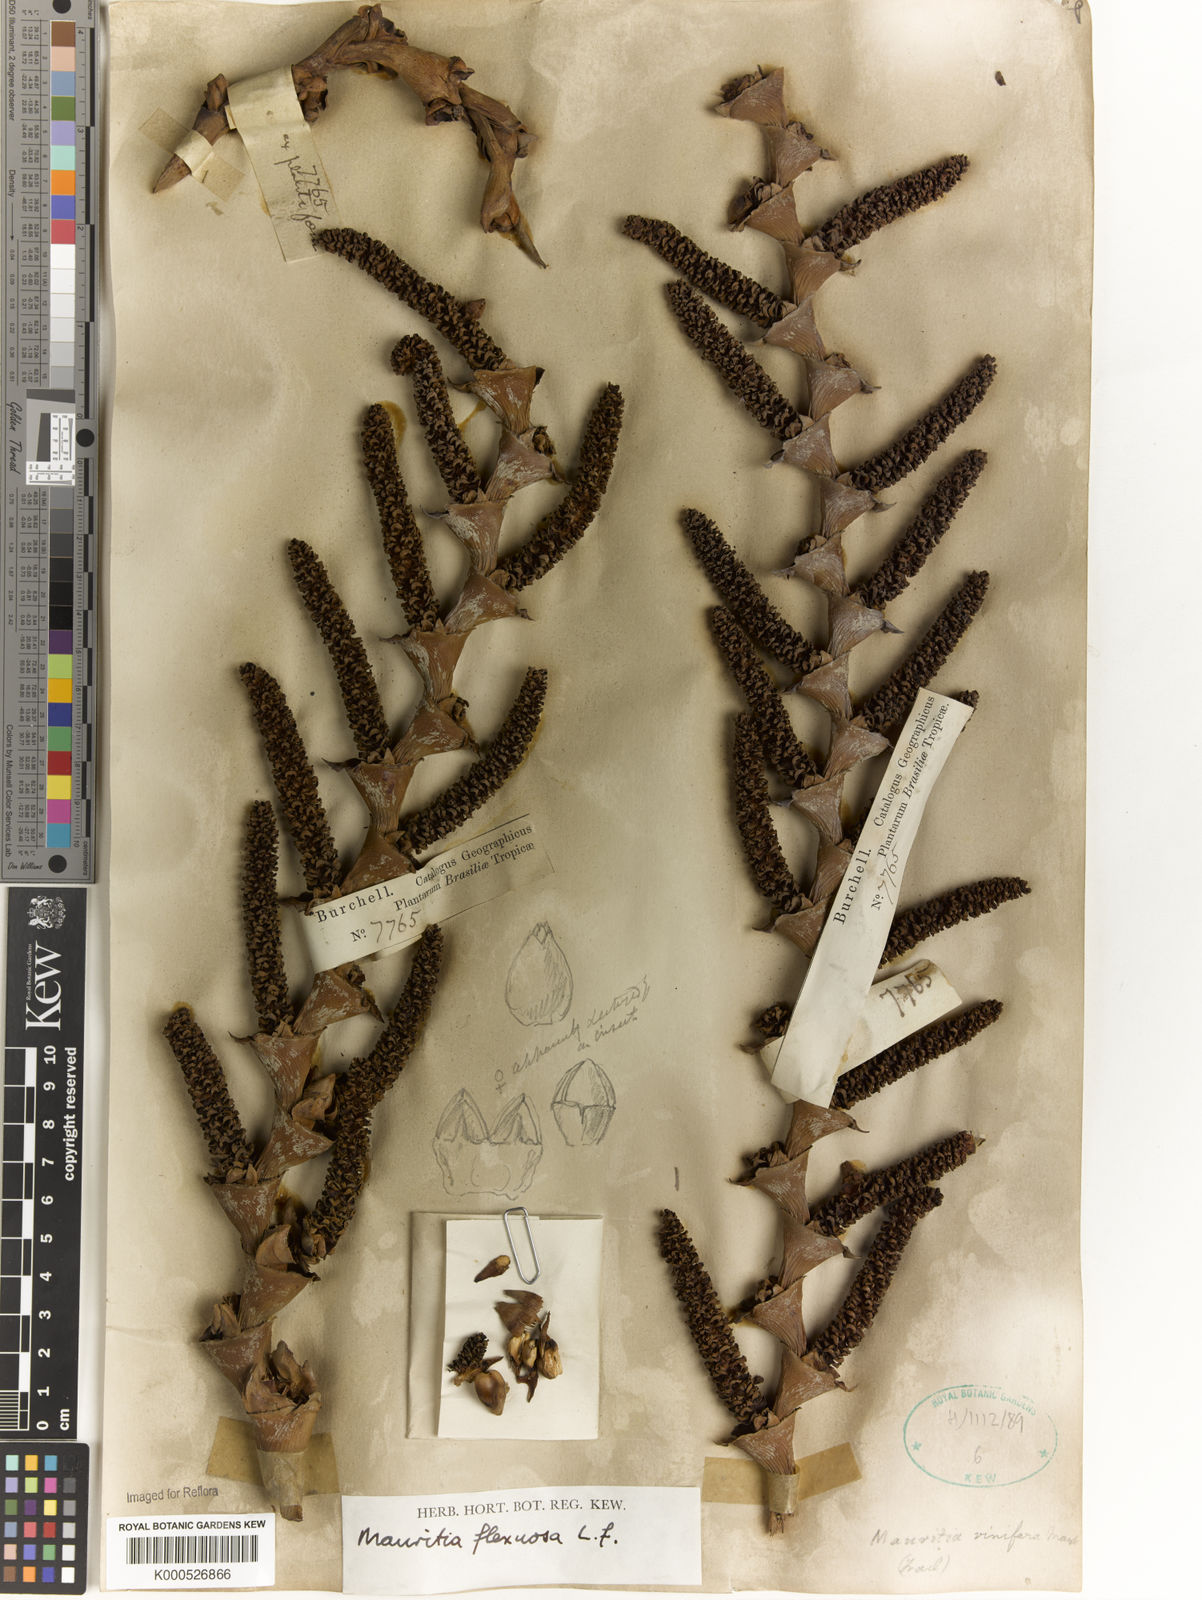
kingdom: Plantae
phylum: Tracheophyta
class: Liliopsida
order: Arecales
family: Arecaceae
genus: Mauritia
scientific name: Mauritia flexuosa
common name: Tree-of-life
